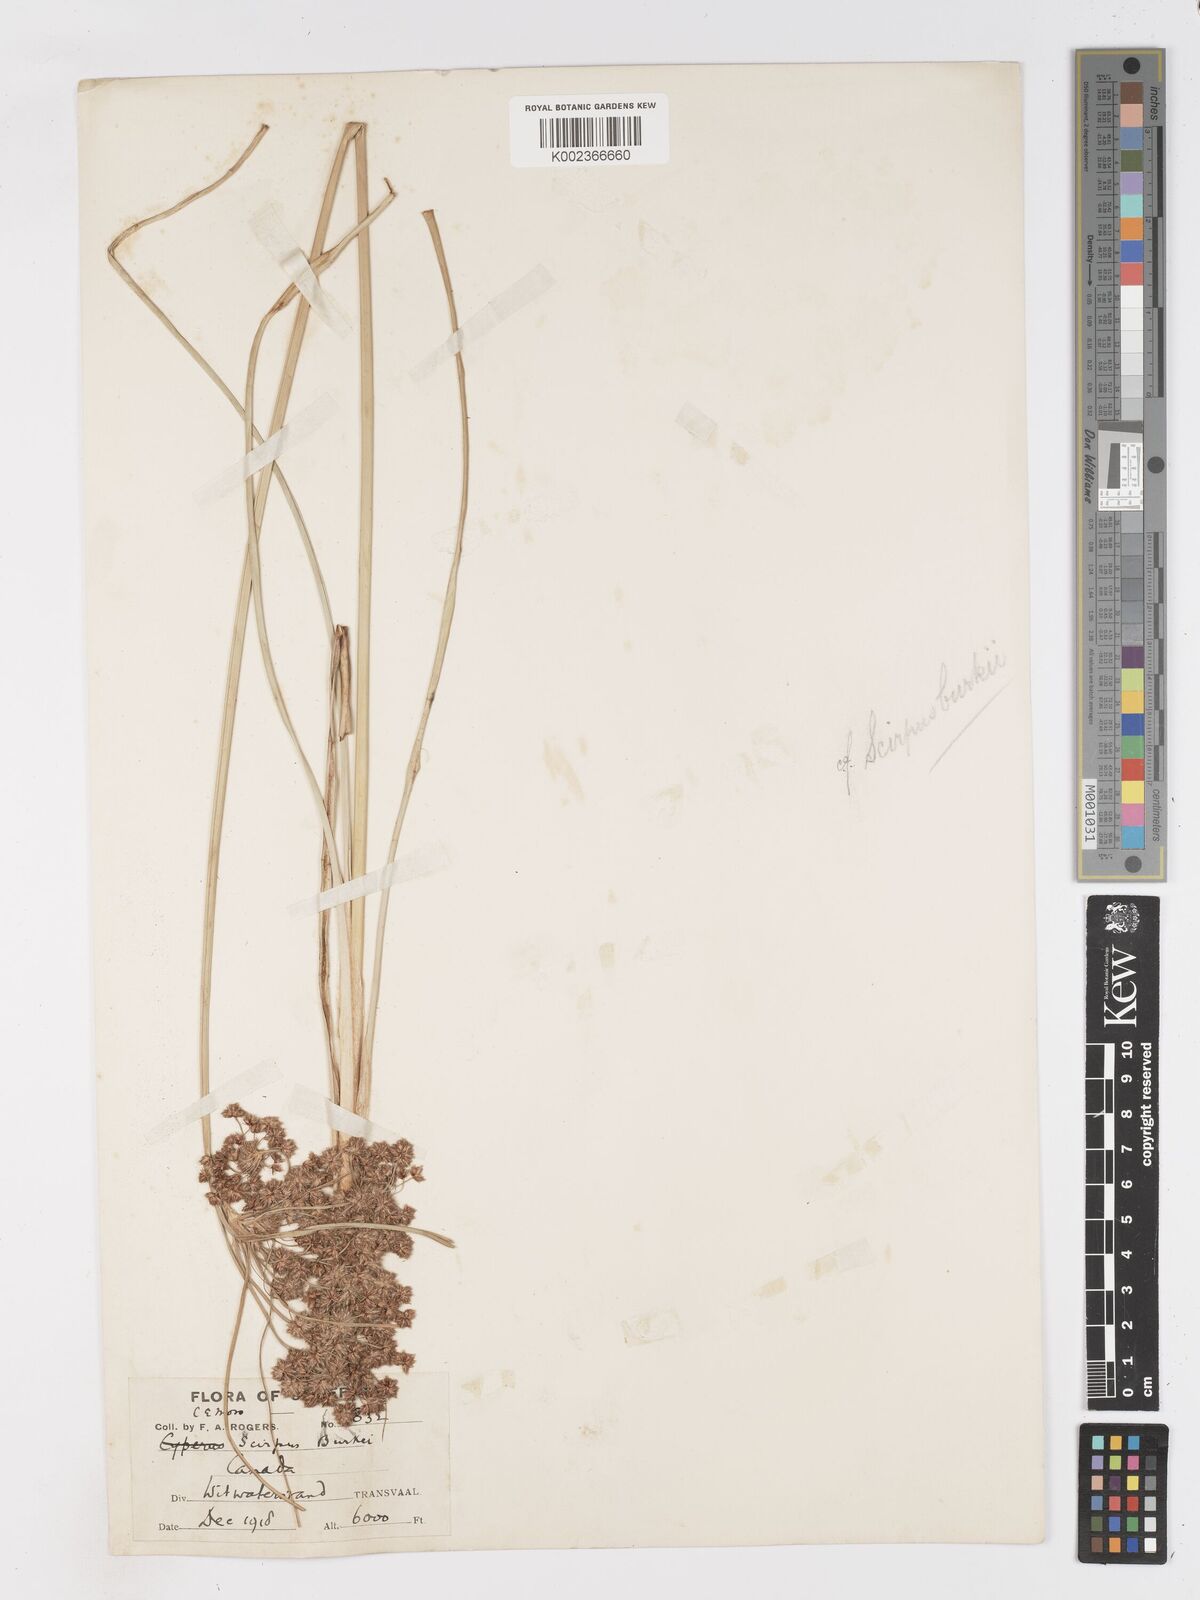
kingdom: Plantae
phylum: Tracheophyta
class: Liliopsida
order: Poales
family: Cyperaceae
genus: Scirpoides
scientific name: Scirpoides burkei
